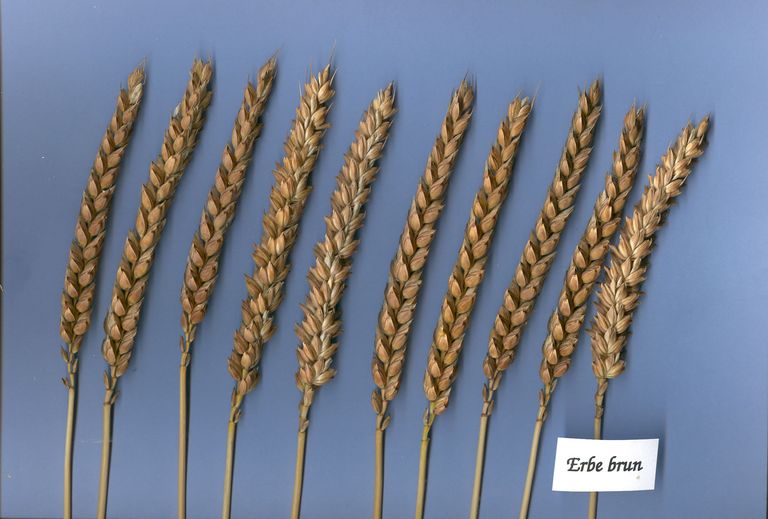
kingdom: Plantae
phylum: Tracheophyta
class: Liliopsida
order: Poales
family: Poaceae
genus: Triticum
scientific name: Triticum aestivum
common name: Common wheat
